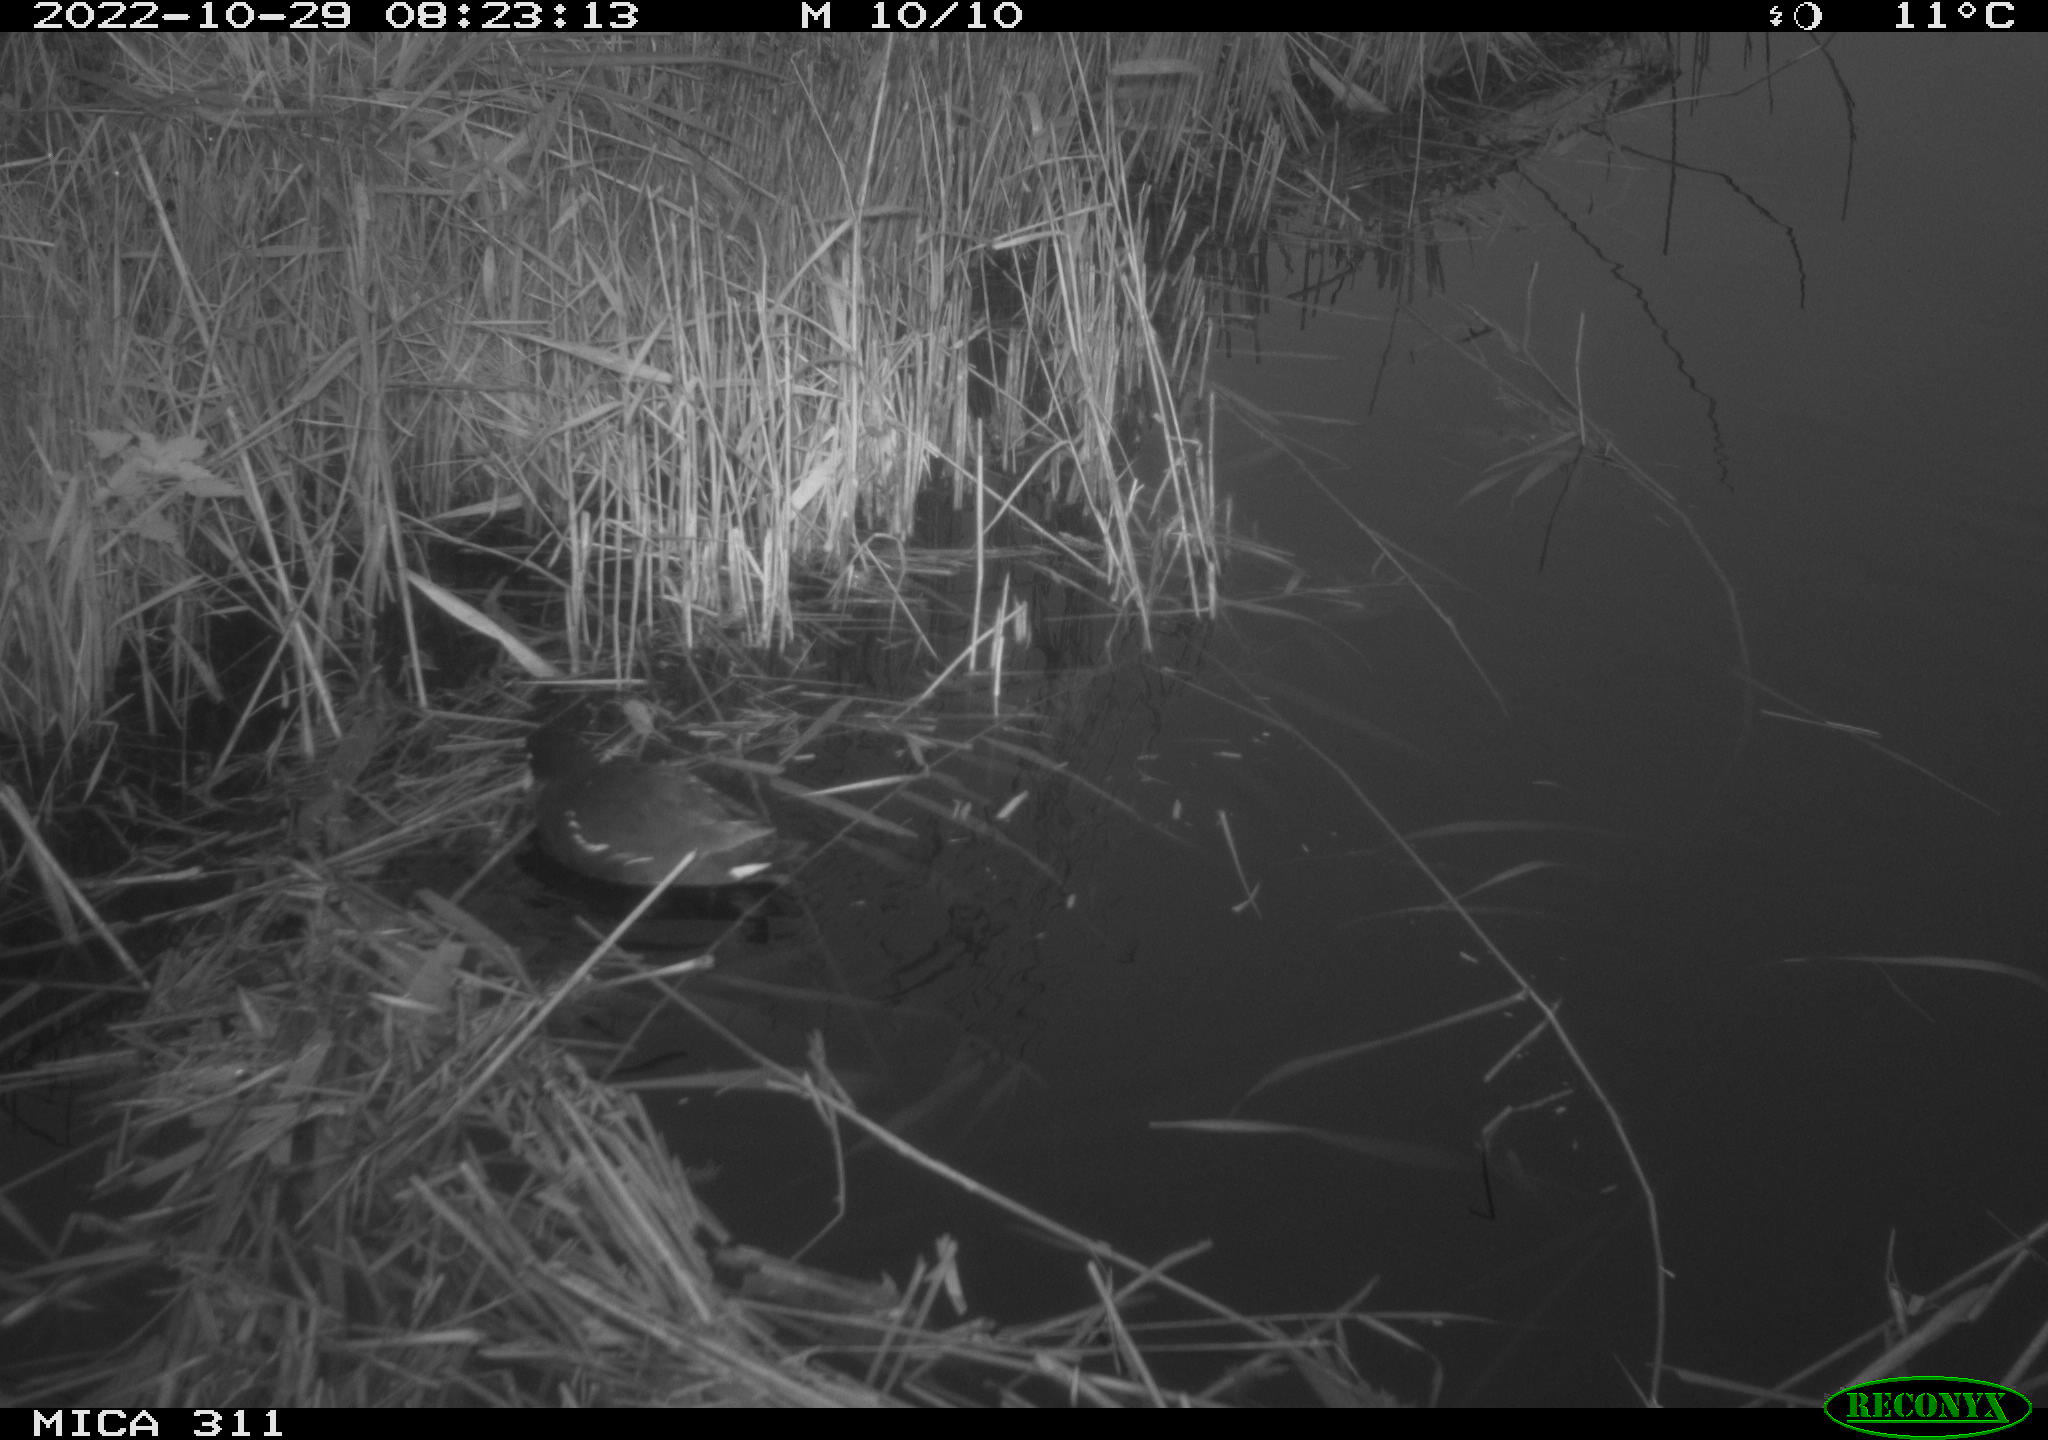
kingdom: Animalia
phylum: Chordata
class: Aves
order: Gruiformes
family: Rallidae
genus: Gallinula
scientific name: Gallinula chloropus
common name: Common moorhen
